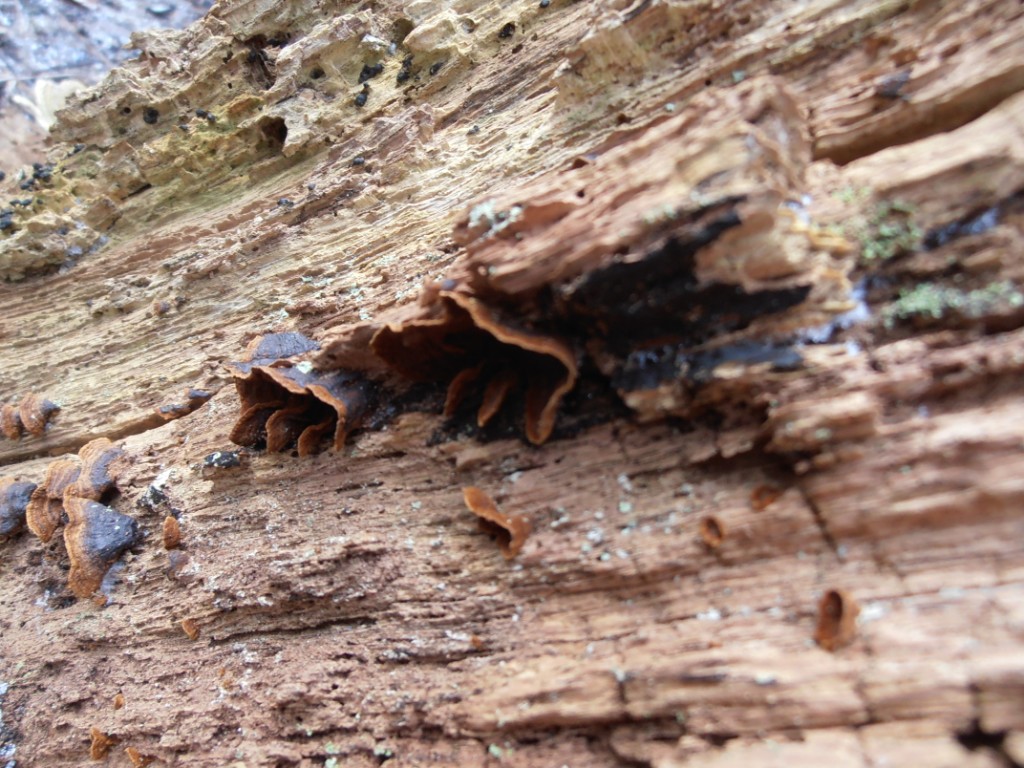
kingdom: Fungi
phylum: Basidiomycota
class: Agaricomycetes
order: Hymenochaetales
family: Hymenochaetaceae
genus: Hymenochaete
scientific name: Hymenochaete rubiginosa
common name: stiv ruslædersvamp
